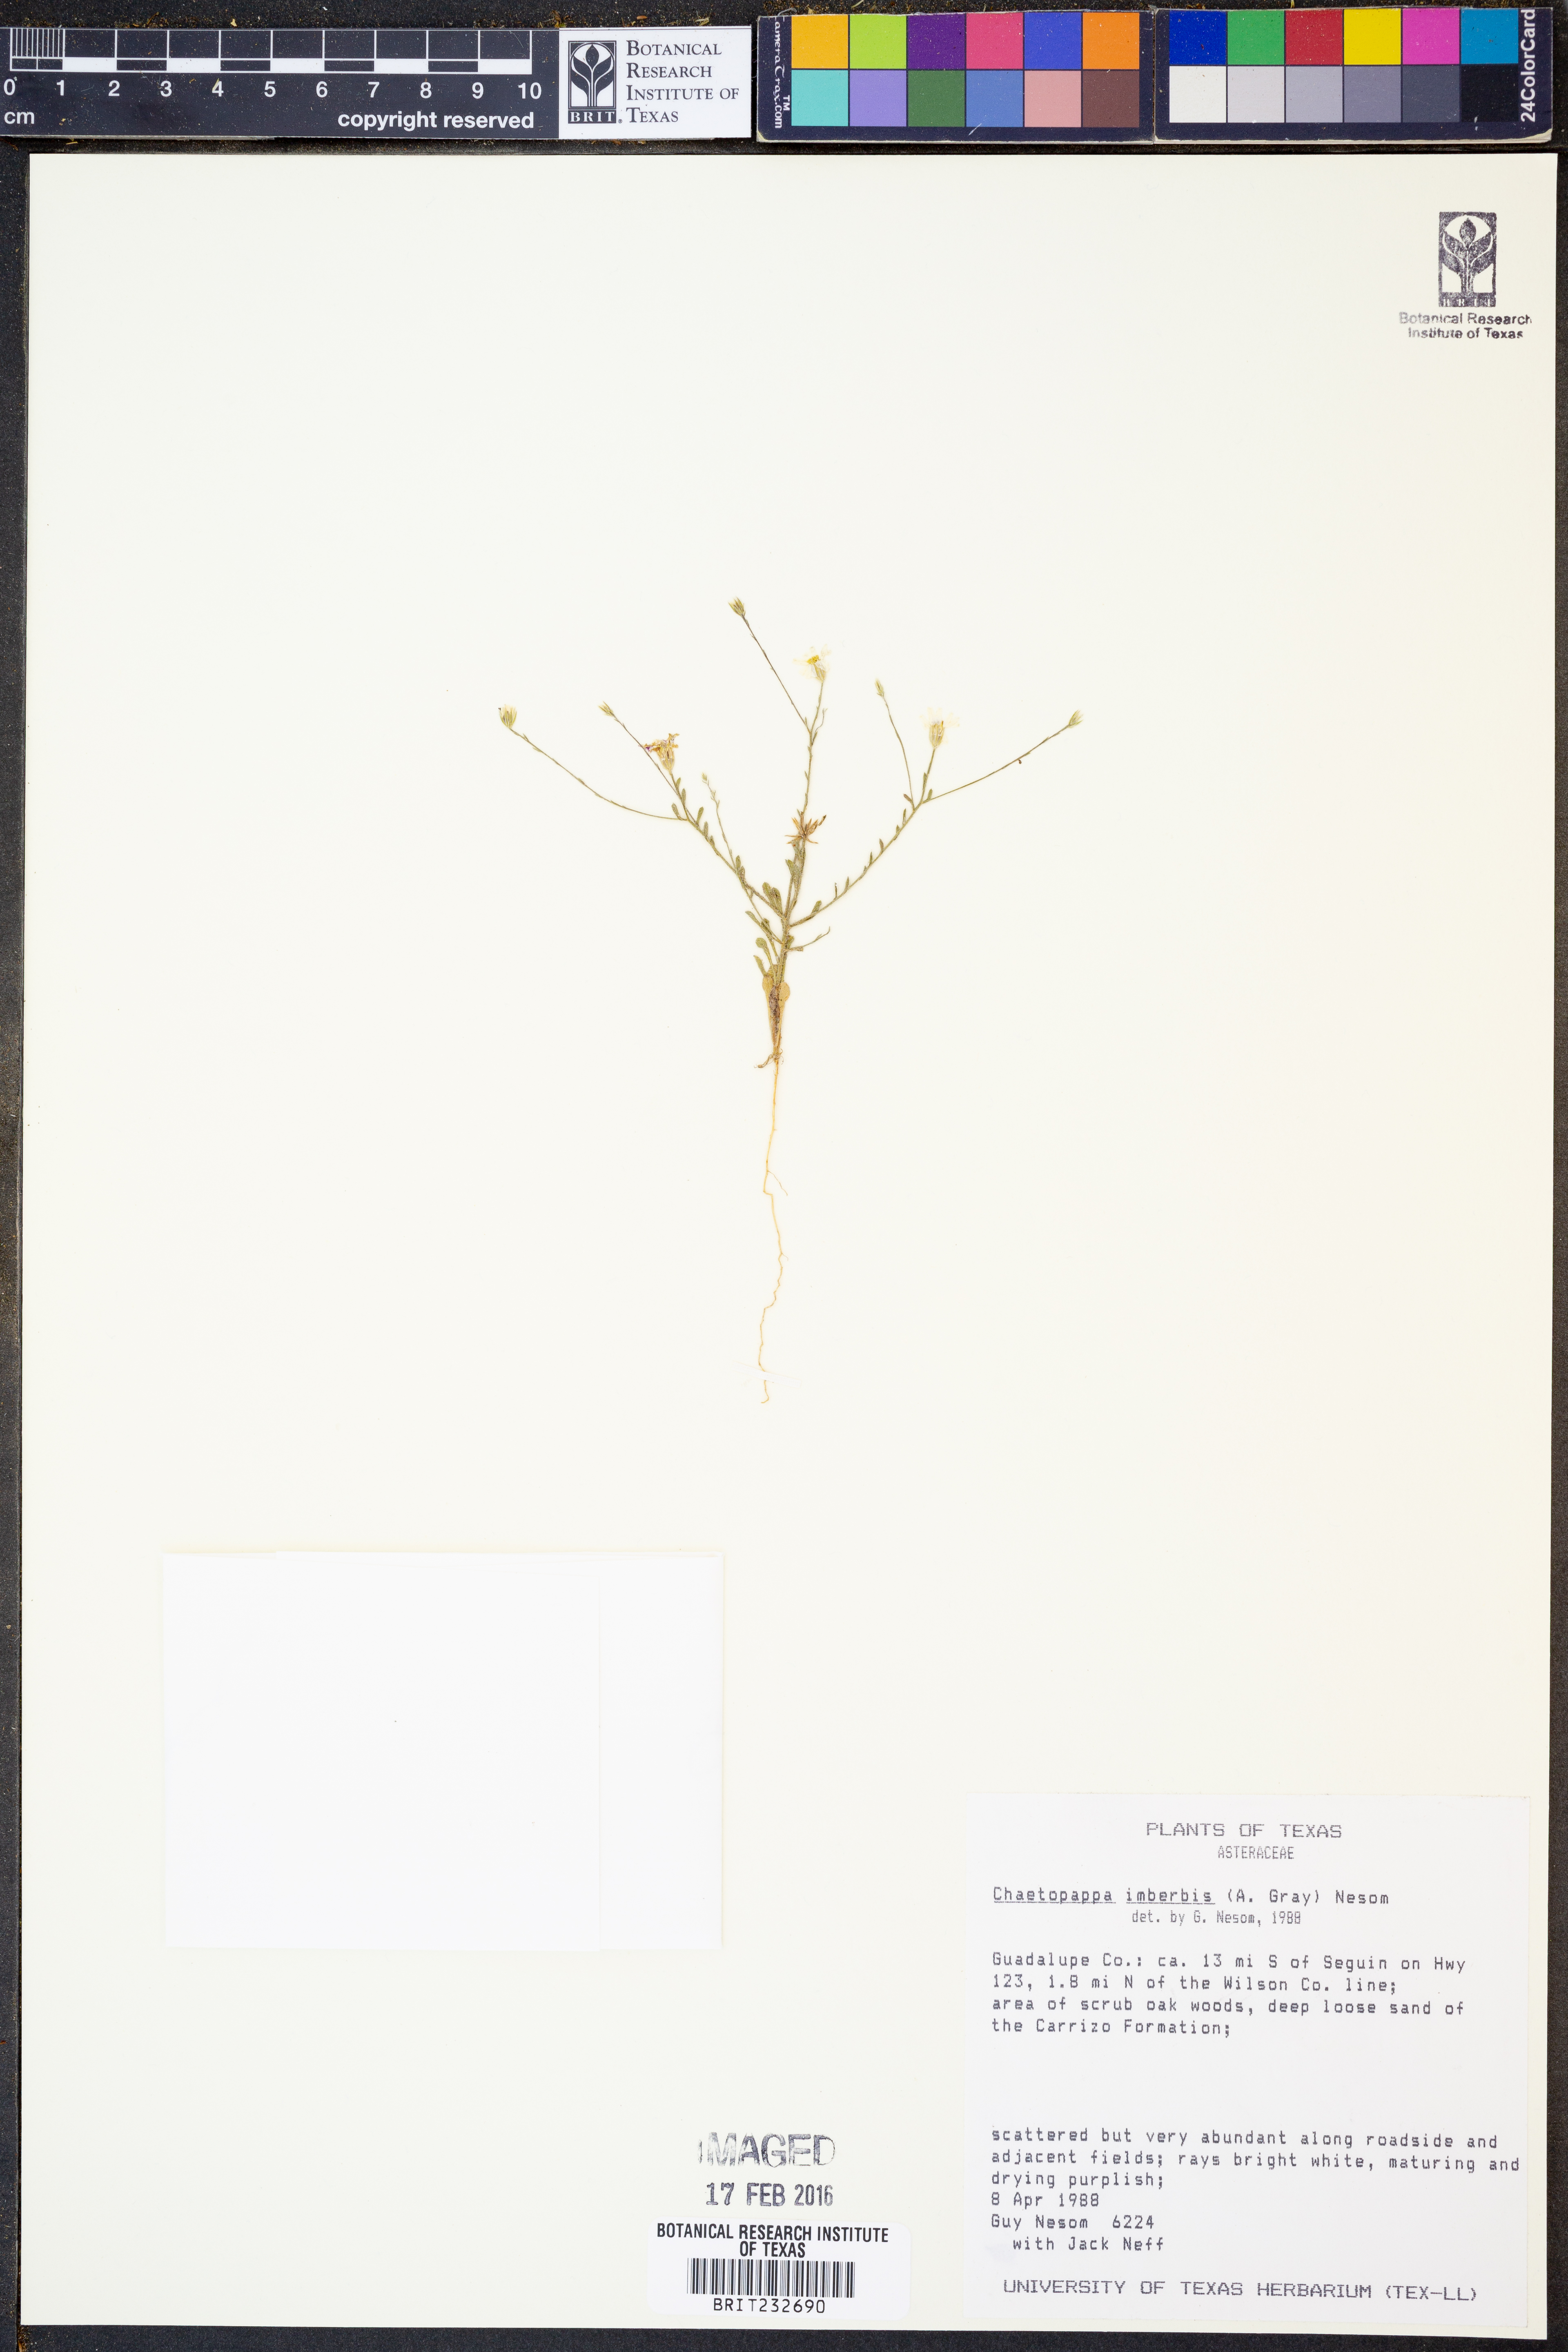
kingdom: Plantae
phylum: Tracheophyta
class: Magnoliopsida
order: Asterales
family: Asteraceae
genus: Chaetopappa
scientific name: Chaetopappa imberbis
